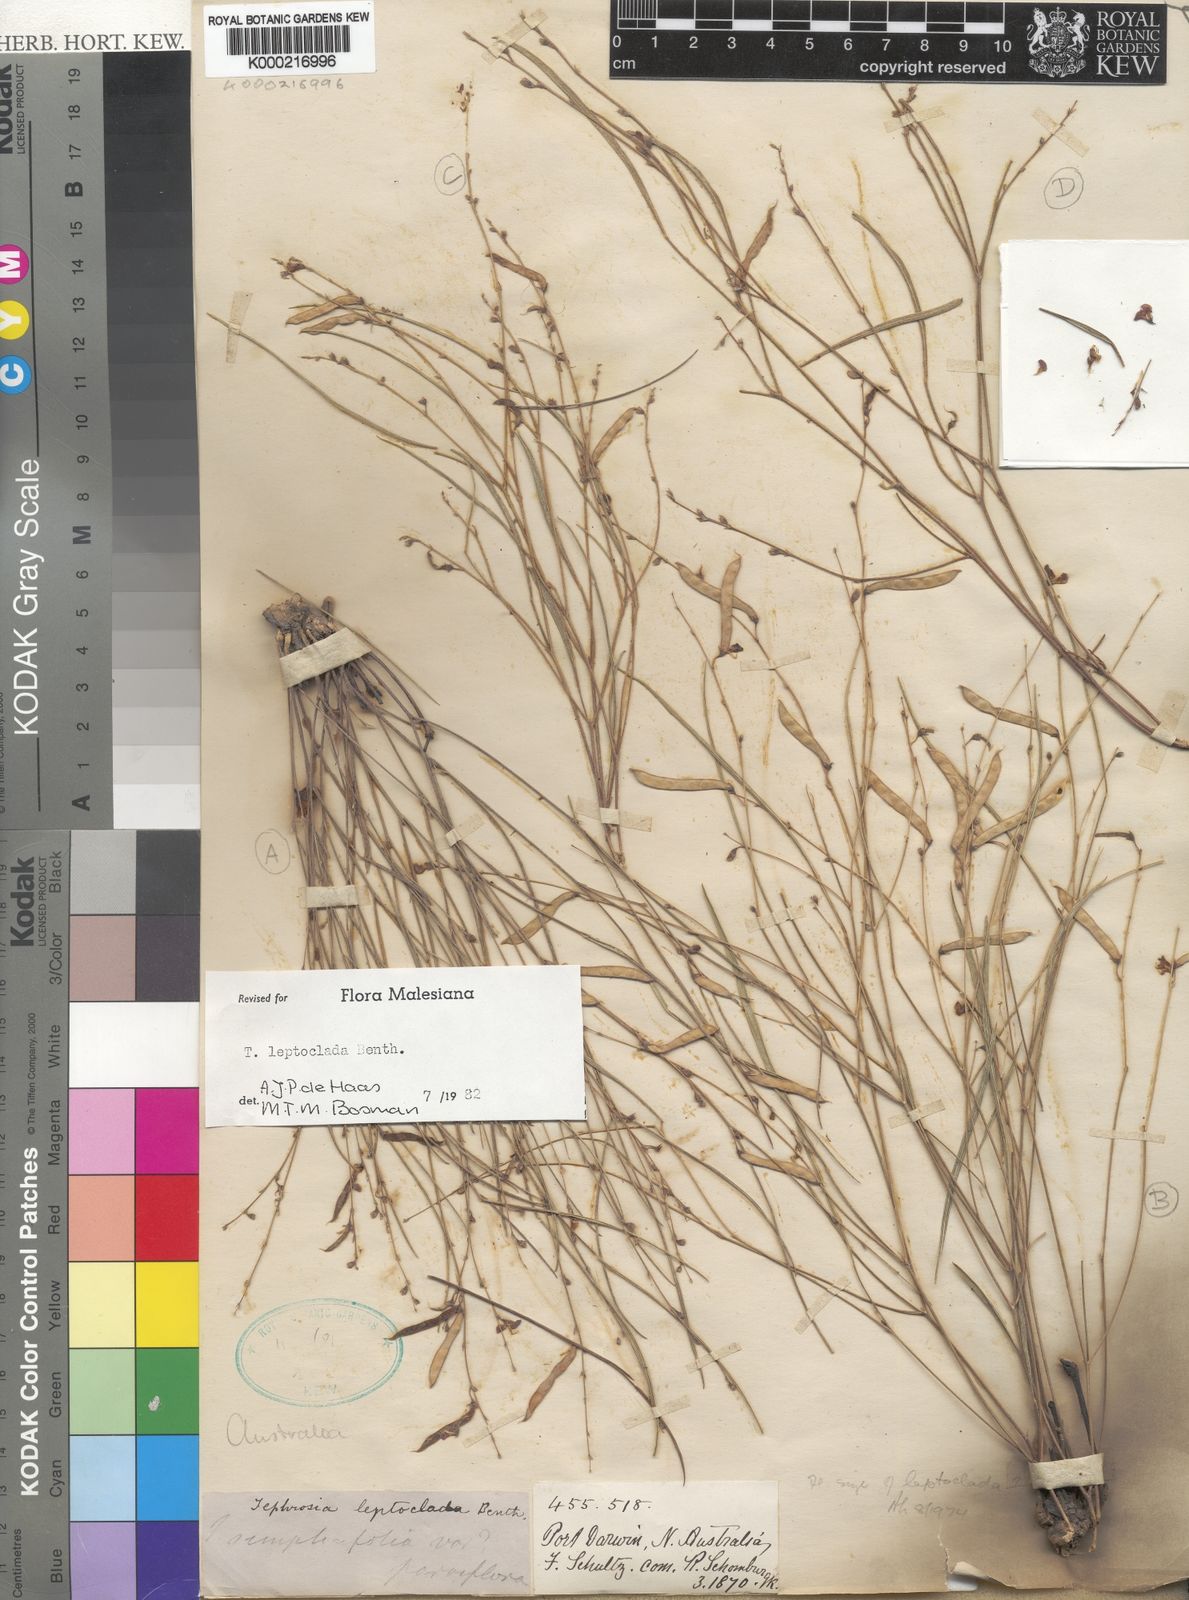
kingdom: Plantae
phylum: Tracheophyta
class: Magnoliopsida
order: Fabales
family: Fabaceae
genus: Tephrosia
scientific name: Tephrosia leptoclada
